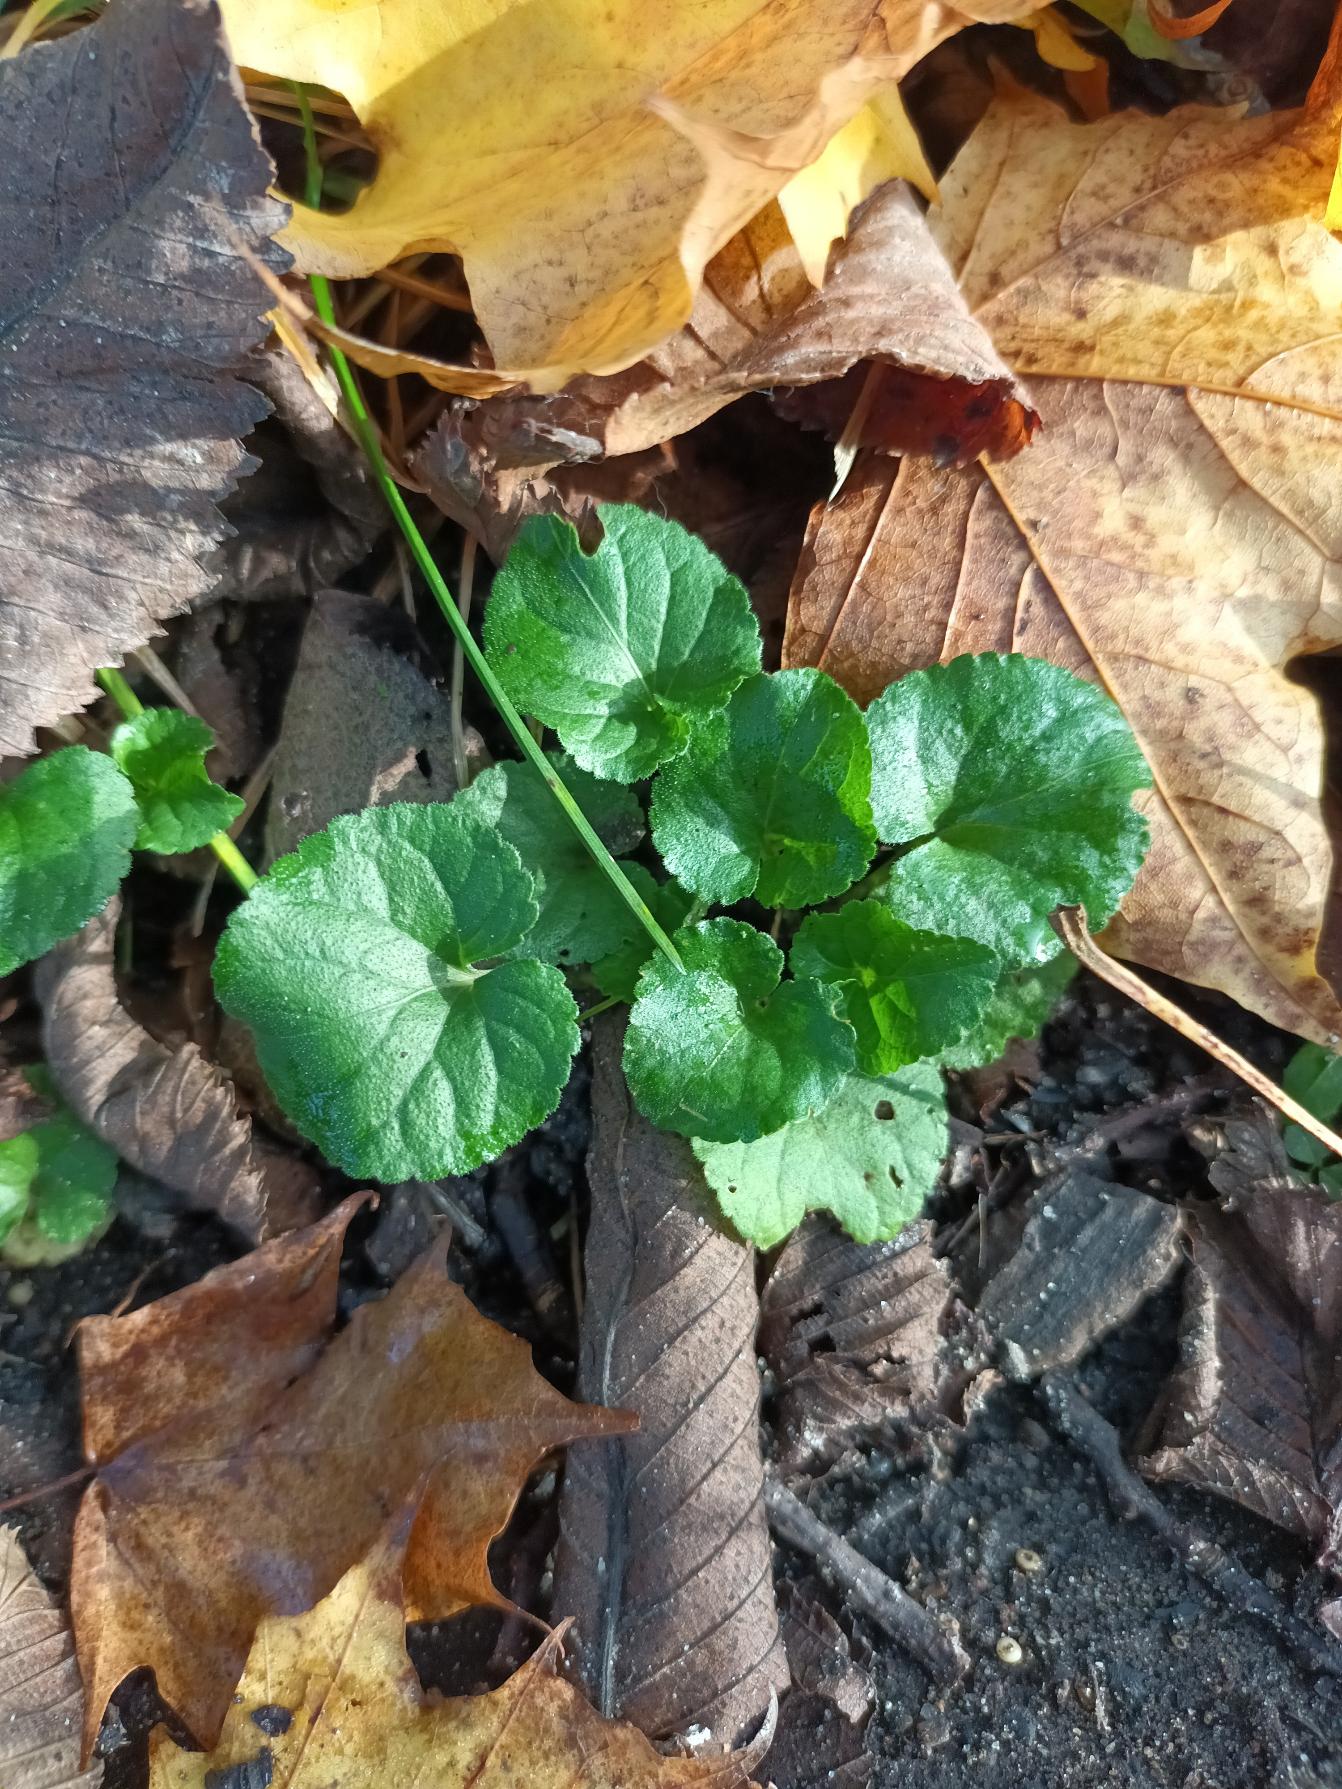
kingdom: Plantae
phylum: Tracheophyta
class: Magnoliopsida
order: Malpighiales
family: Violaceae
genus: Viola
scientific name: Viola odorata
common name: Marts-viol
